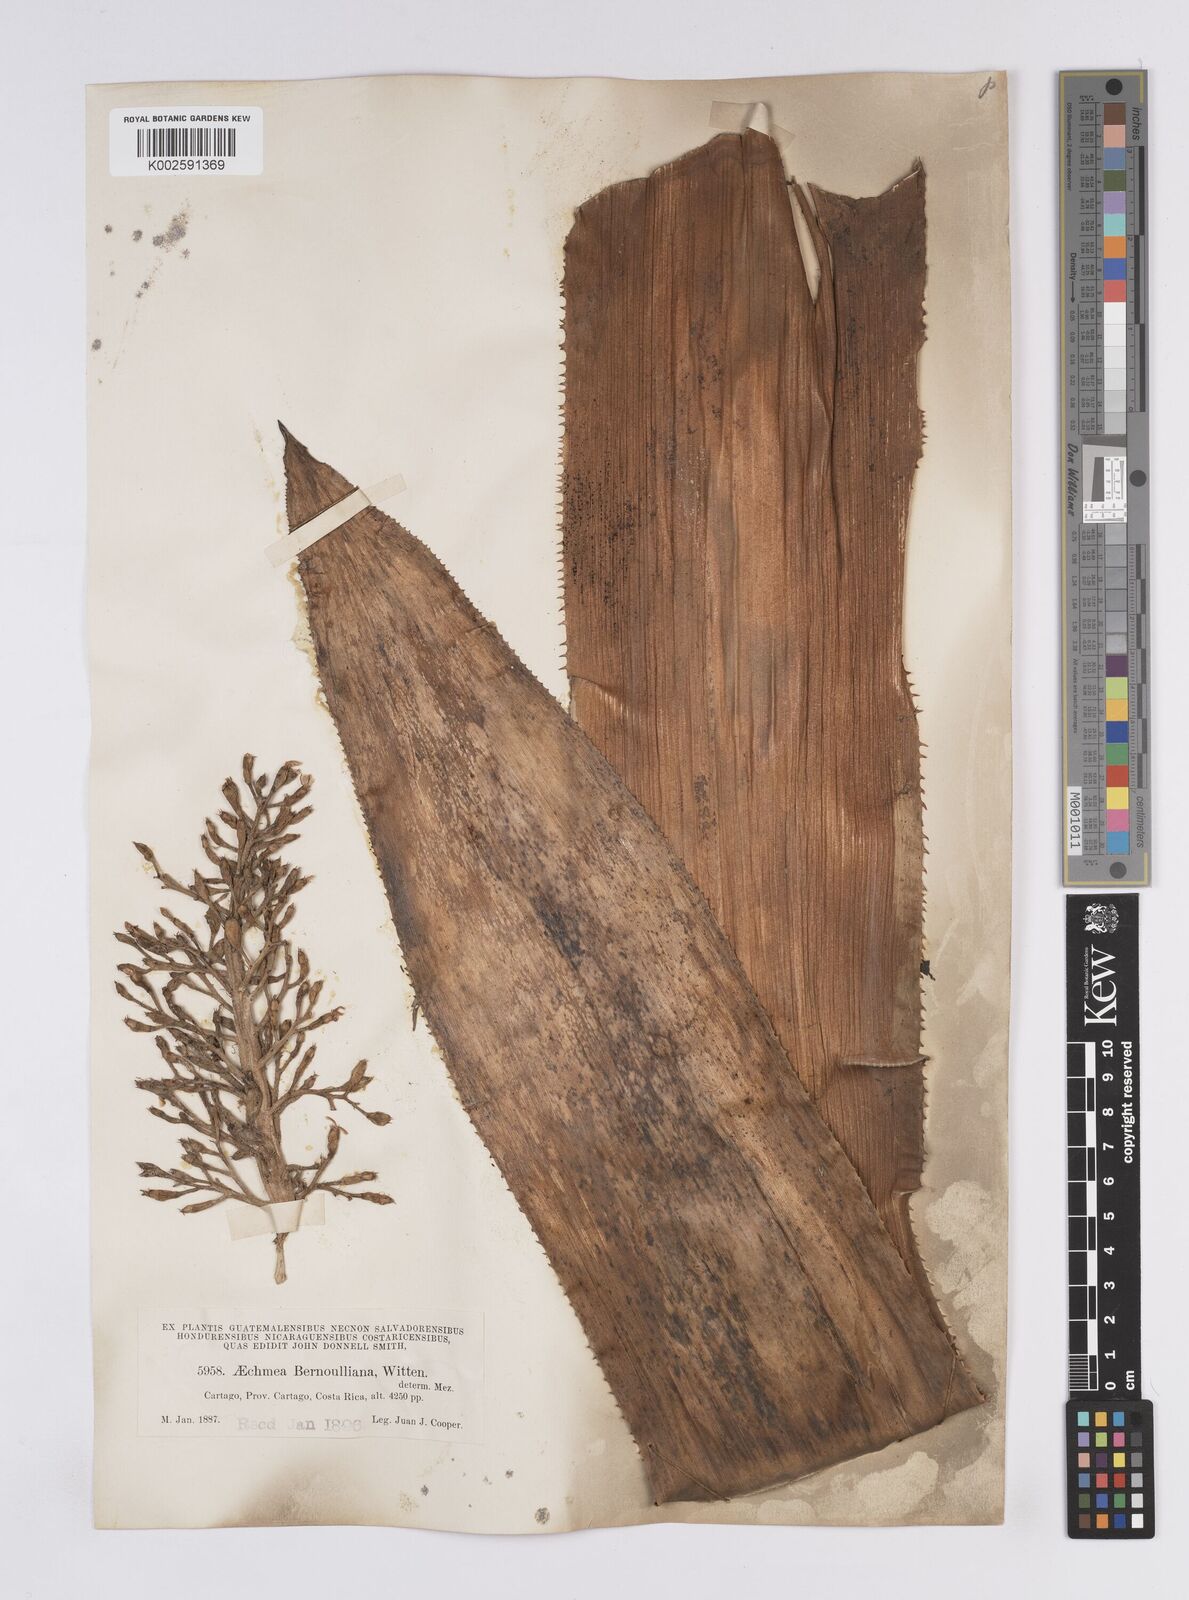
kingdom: Plantae
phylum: Tracheophyta
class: Liliopsida
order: Poales
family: Bromeliaceae
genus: Aechmea
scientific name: Aechmea mexicana
